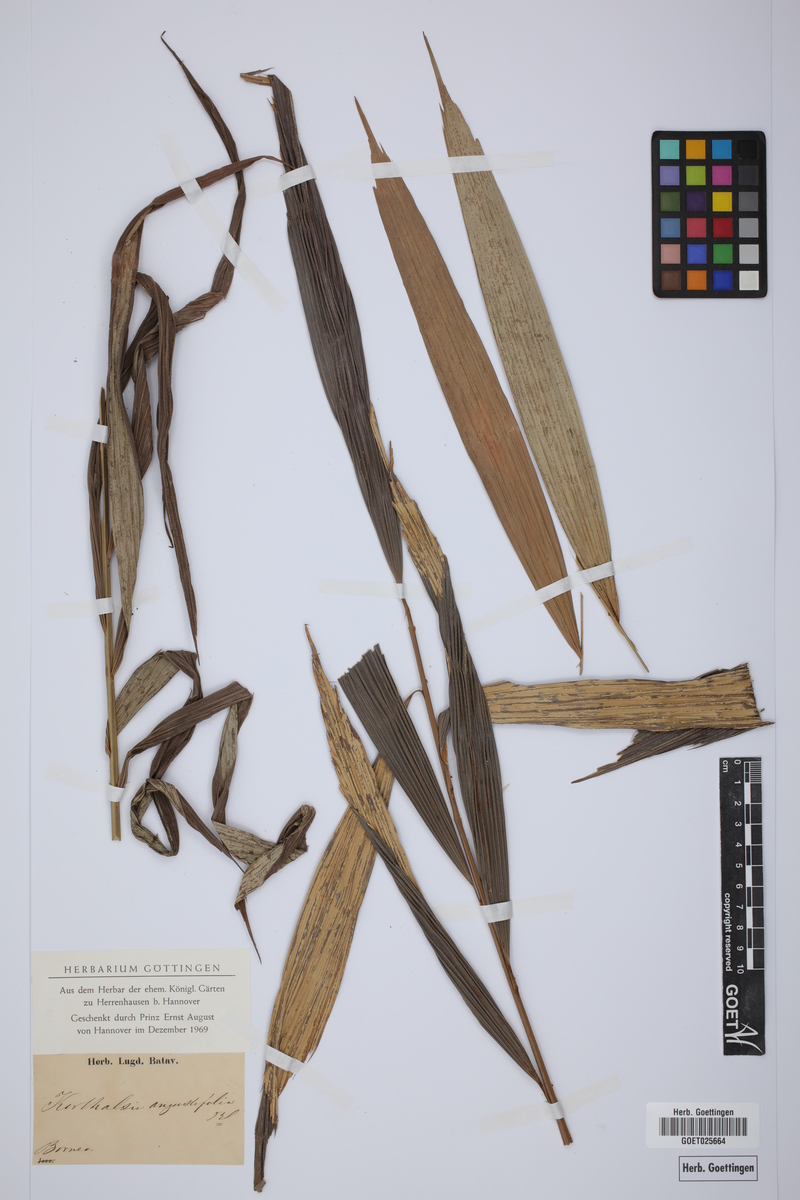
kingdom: Plantae
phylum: Tracheophyta
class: Liliopsida
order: Arecales
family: Arecaceae
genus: Korthalsia
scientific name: Korthalsia angustifolia
